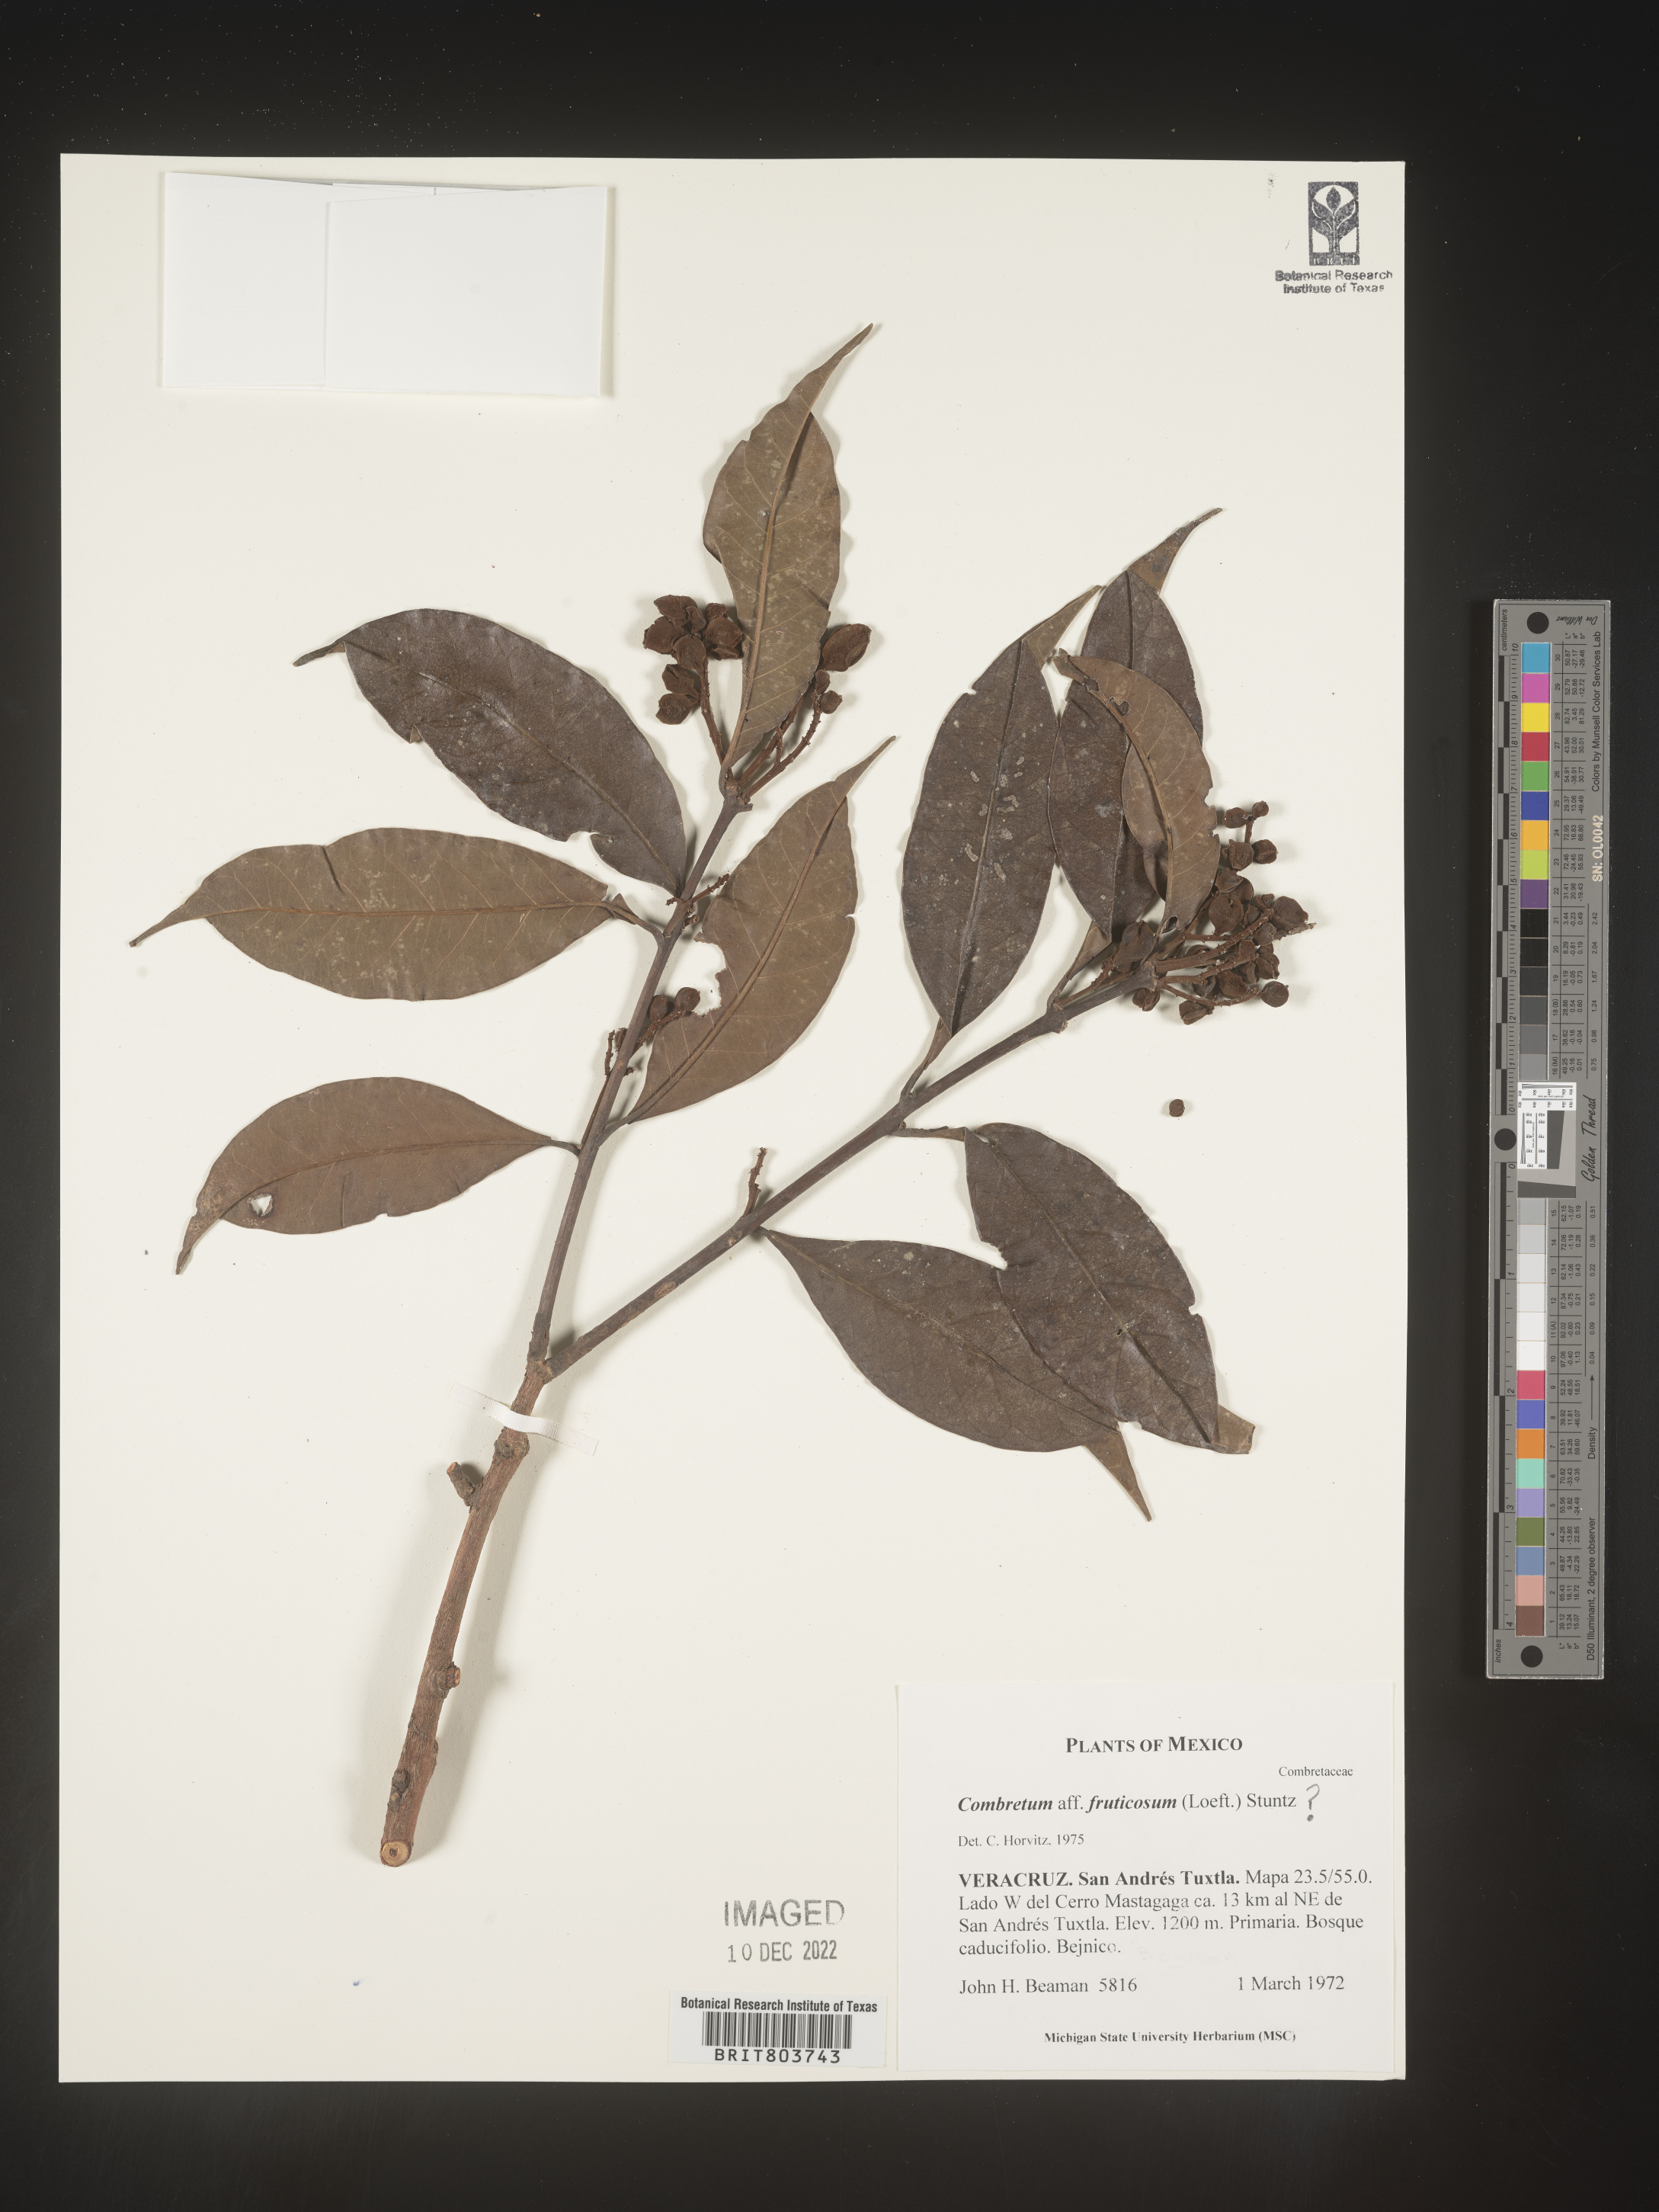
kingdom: Plantae
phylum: Tracheophyta
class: Magnoliopsida
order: Myrtales
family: Combretaceae
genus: Combretum
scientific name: Combretum
